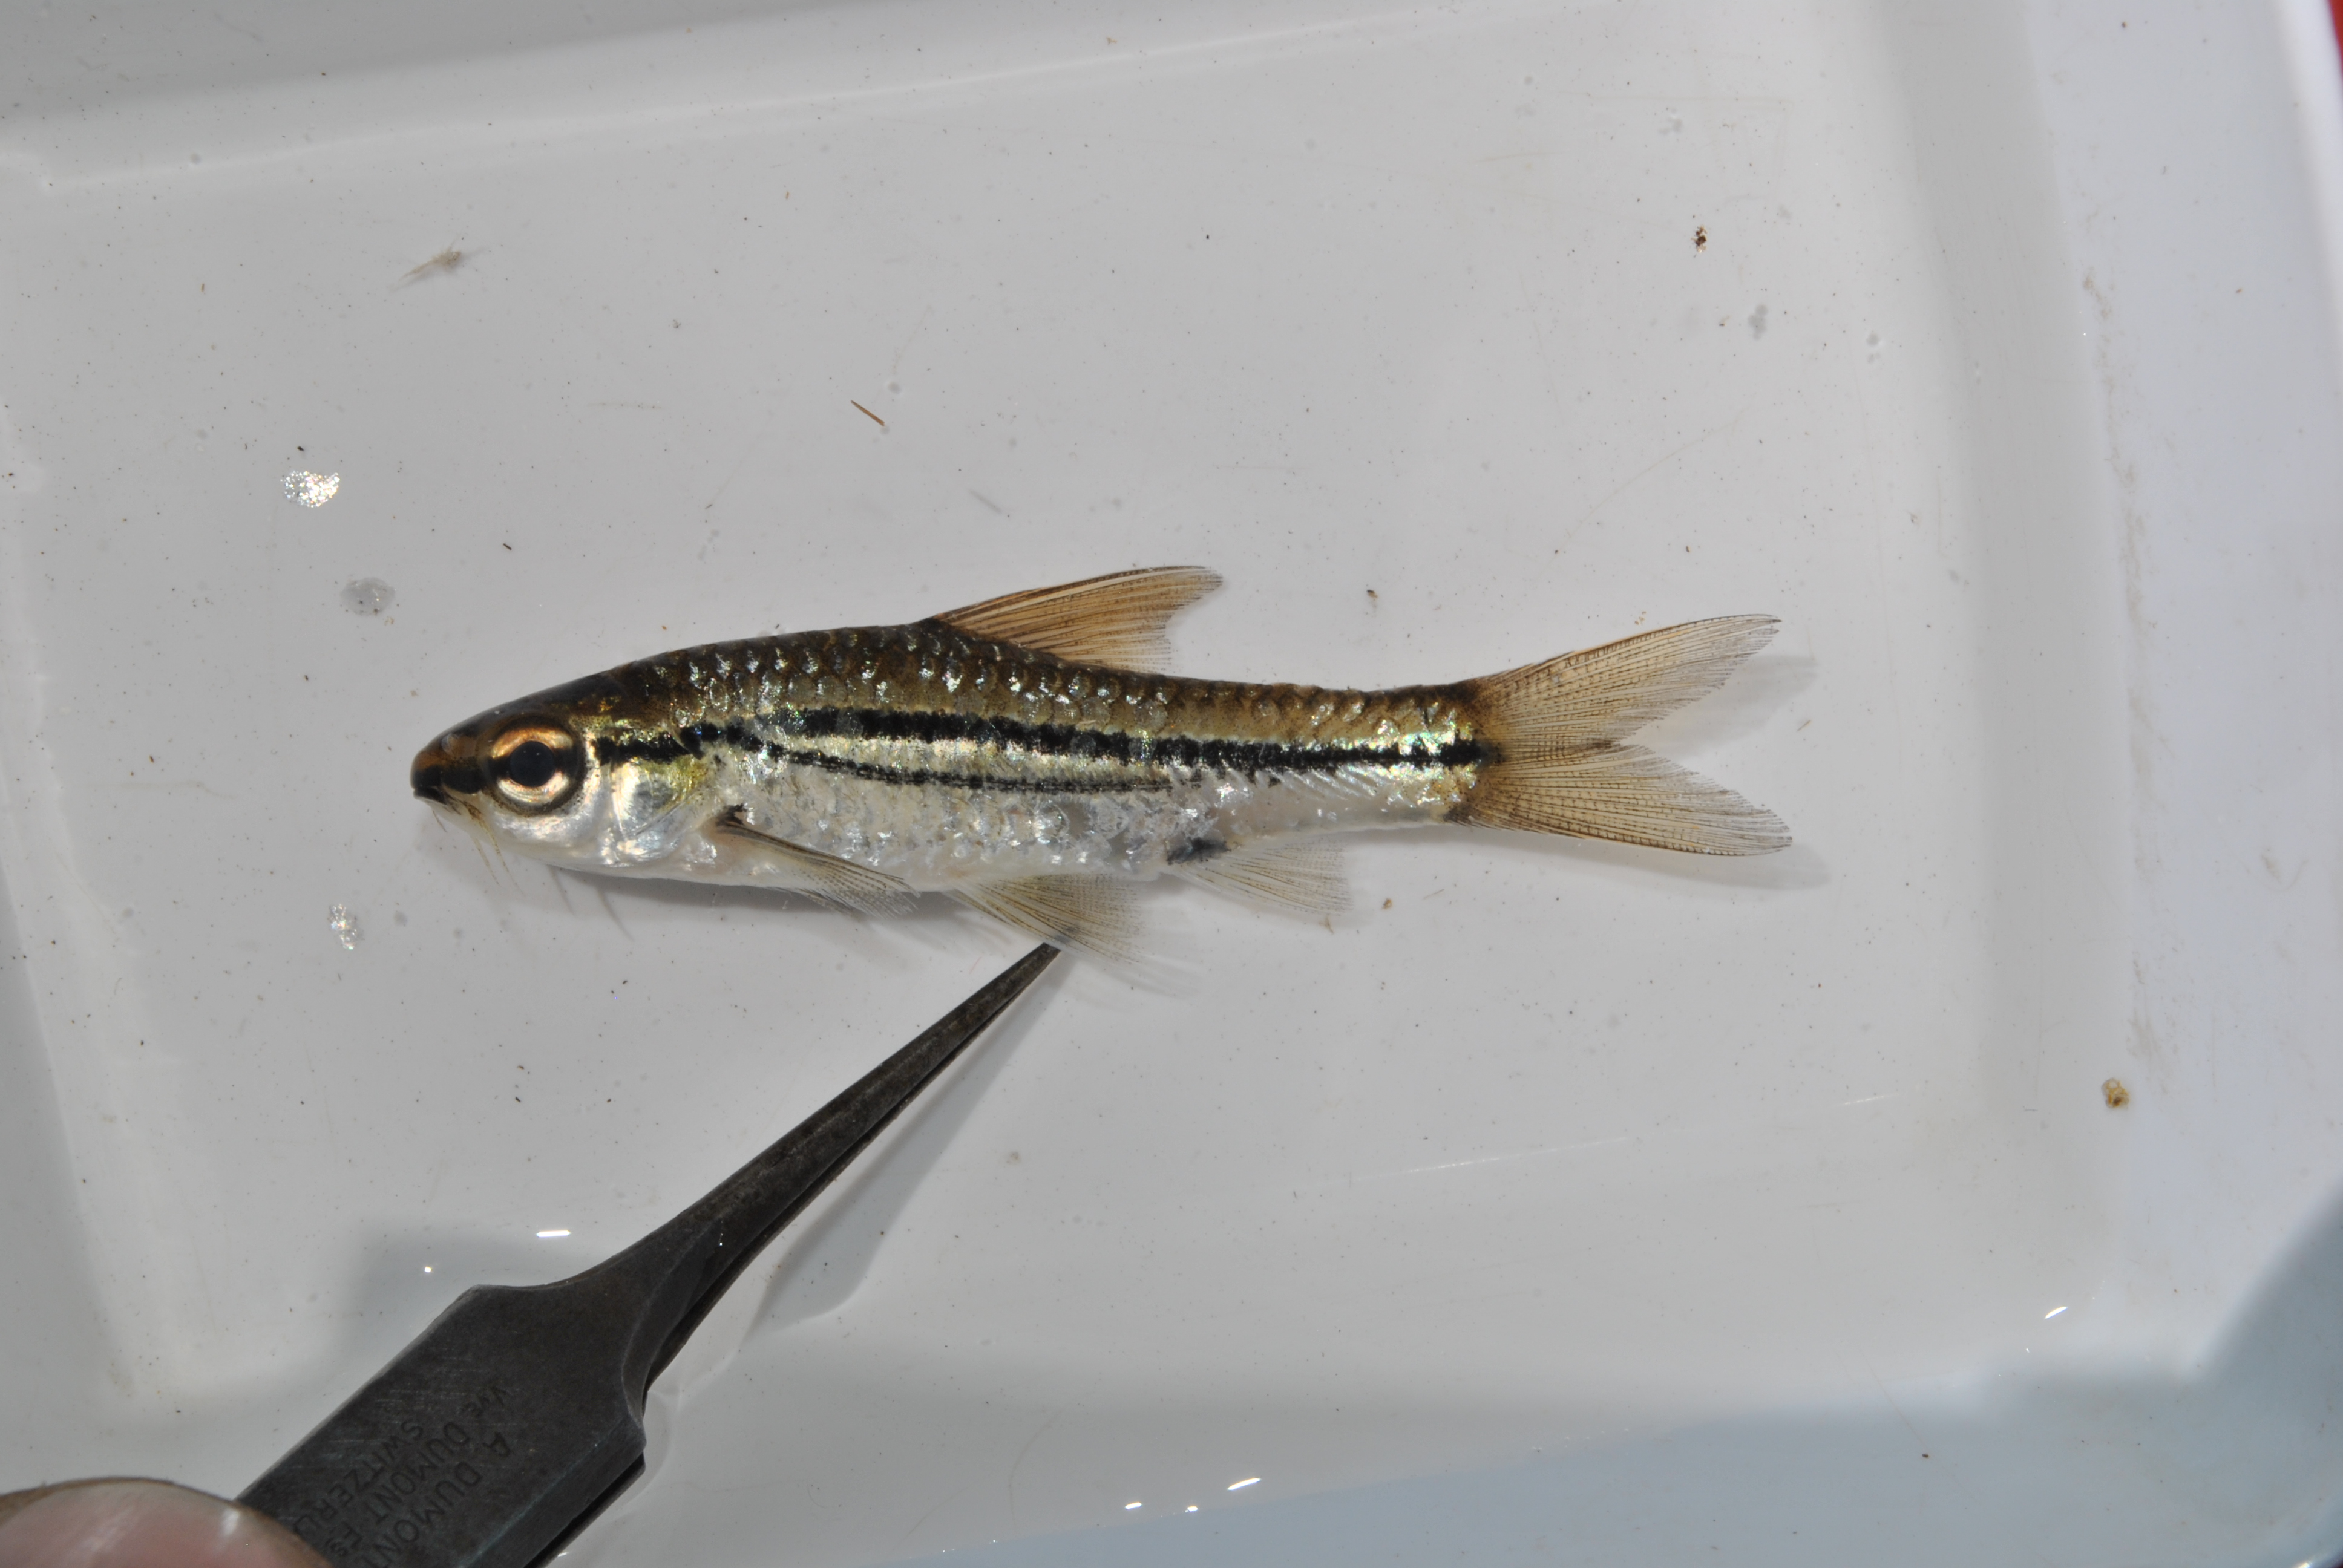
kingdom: Animalia
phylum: Chordata
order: Cypriniformes
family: Cyprinidae
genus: Enteromius
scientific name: Enteromius bifrenatus
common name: Hyphen barb
